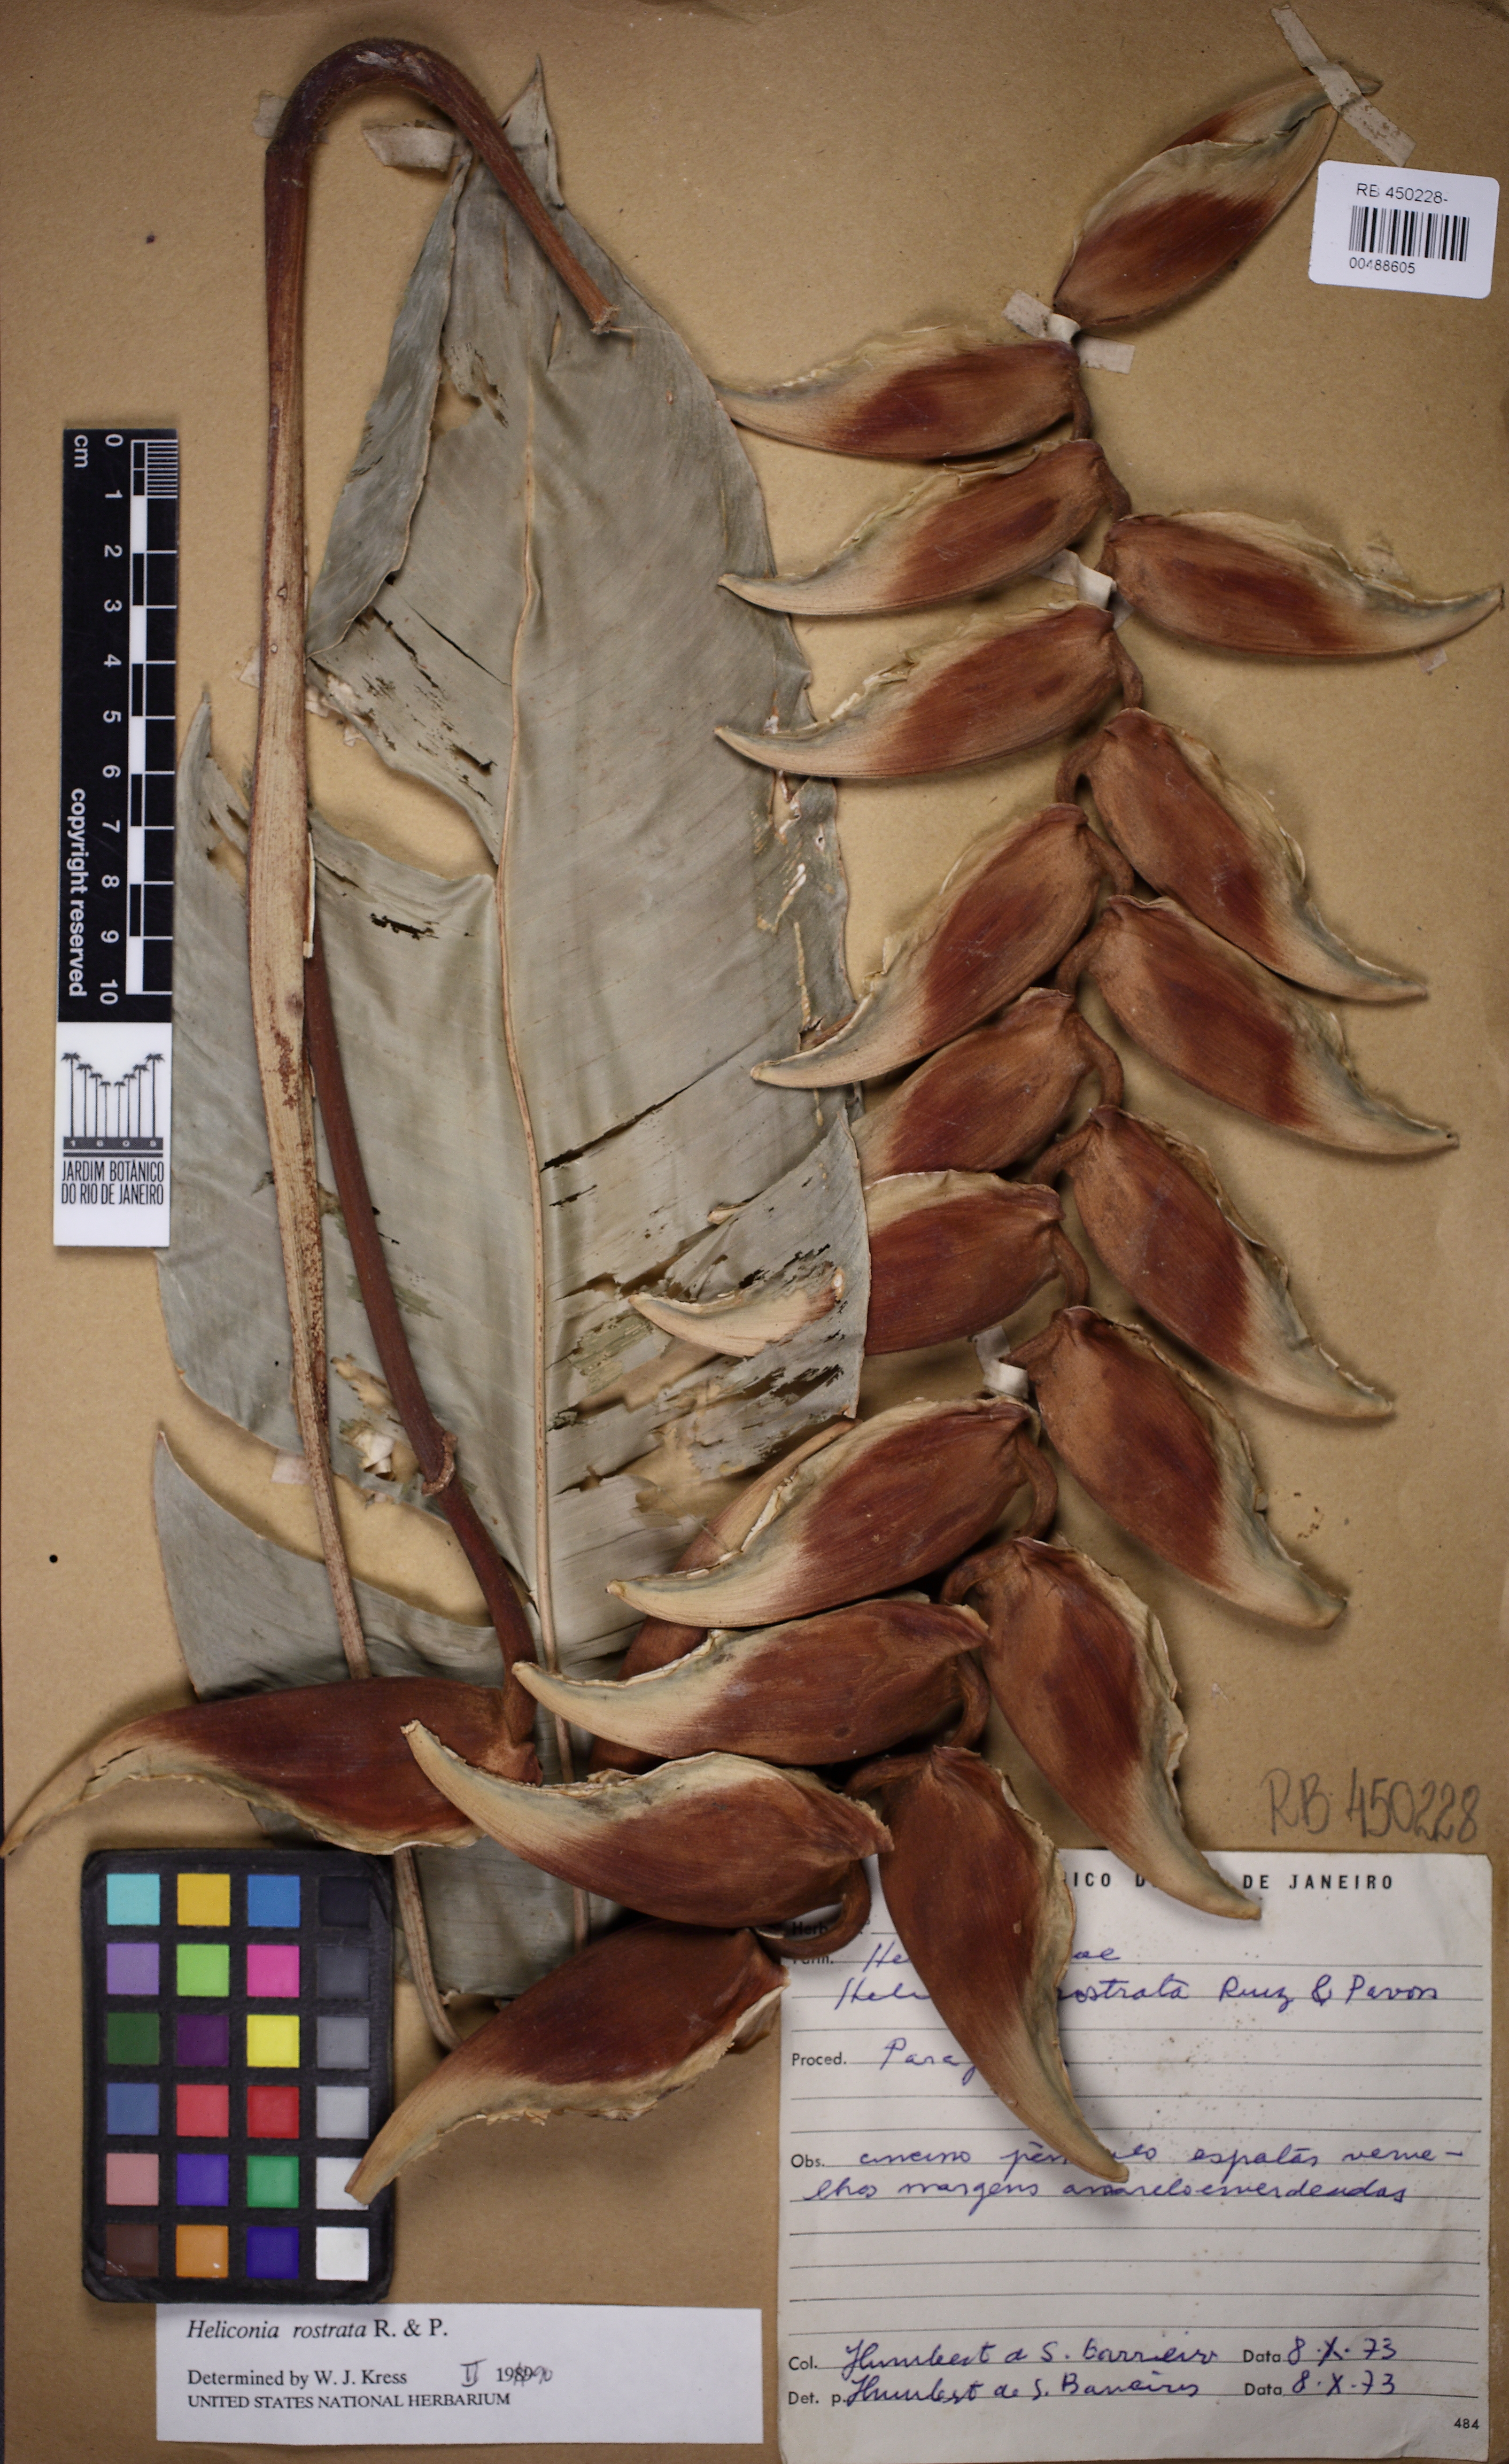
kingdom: Plantae
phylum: Tracheophyta
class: Liliopsida
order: Zingiberales
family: Heliconiaceae
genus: Heliconia
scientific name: Heliconia rostrata
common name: False bird of paradise
